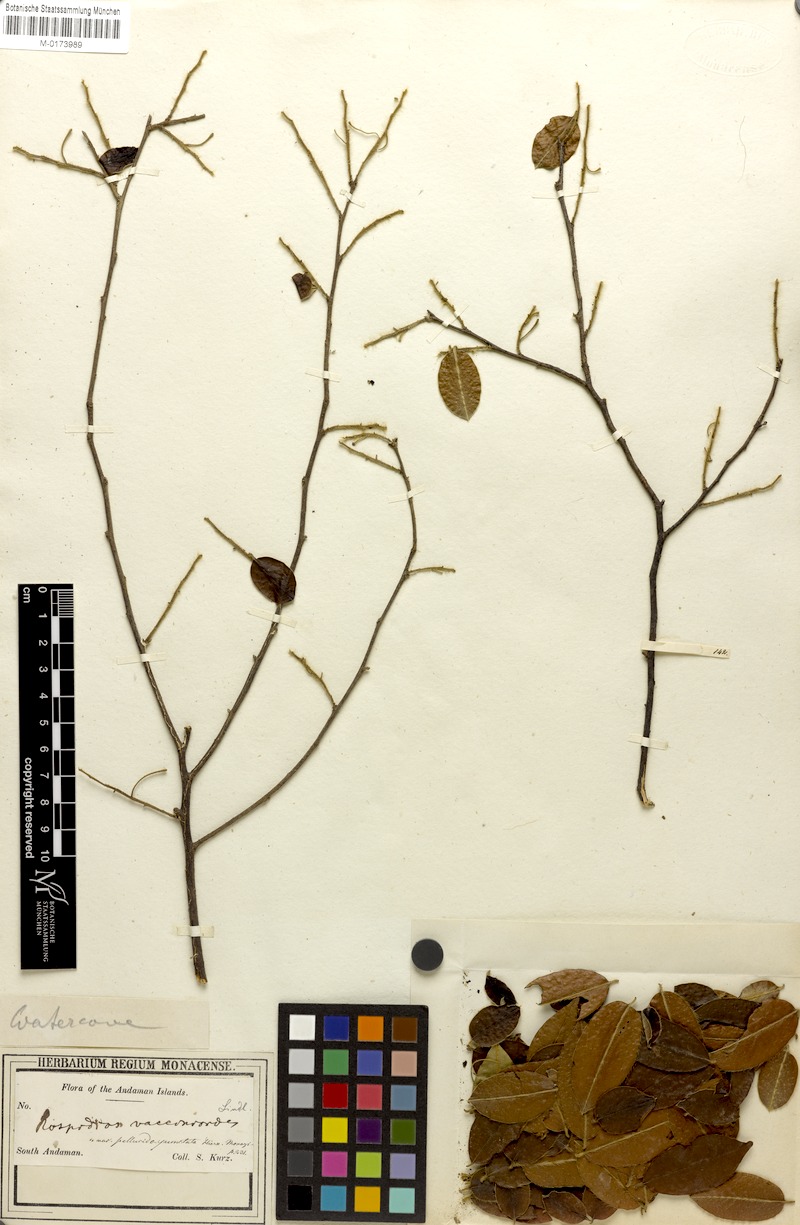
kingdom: Plantae
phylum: Tracheophyta
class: Magnoliopsida
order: Ericales
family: Ebenaceae
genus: Diospyros
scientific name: Diospyros pilosiuscula
